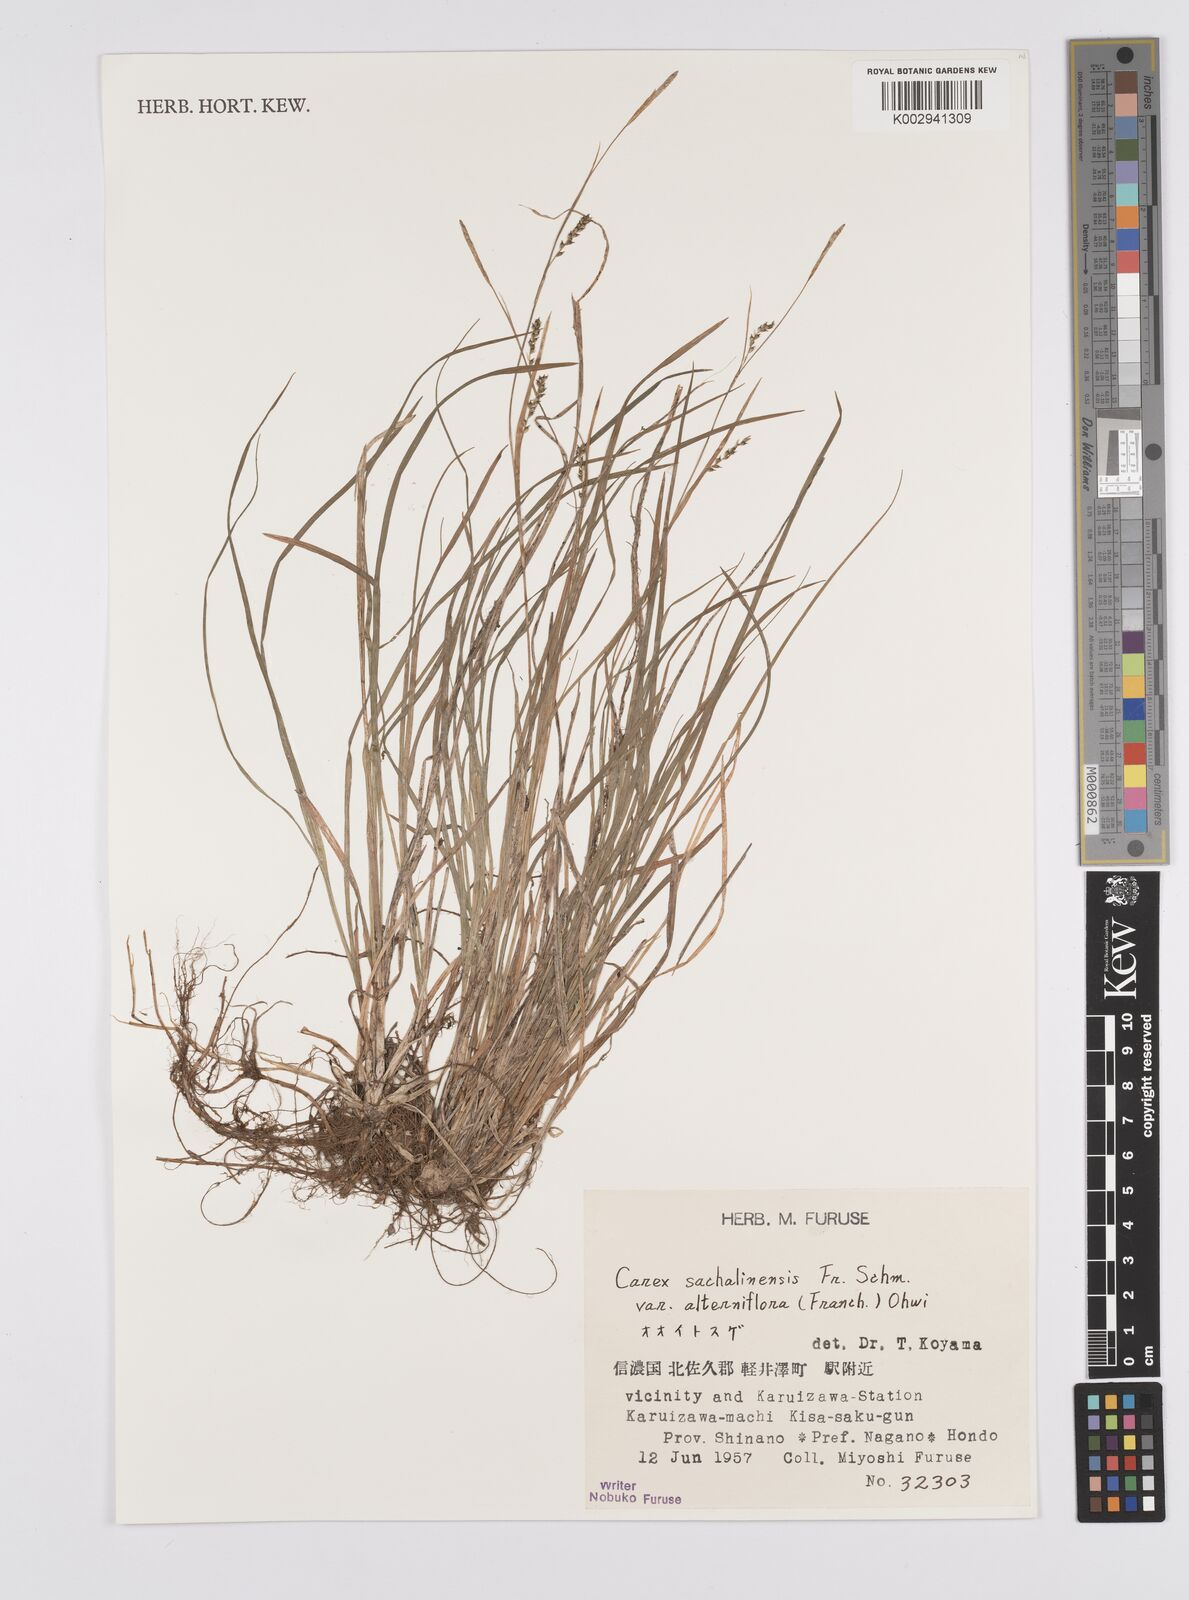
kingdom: Plantae
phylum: Tracheophyta
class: Liliopsida
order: Poales
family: Cyperaceae
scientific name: Cyperaceae
